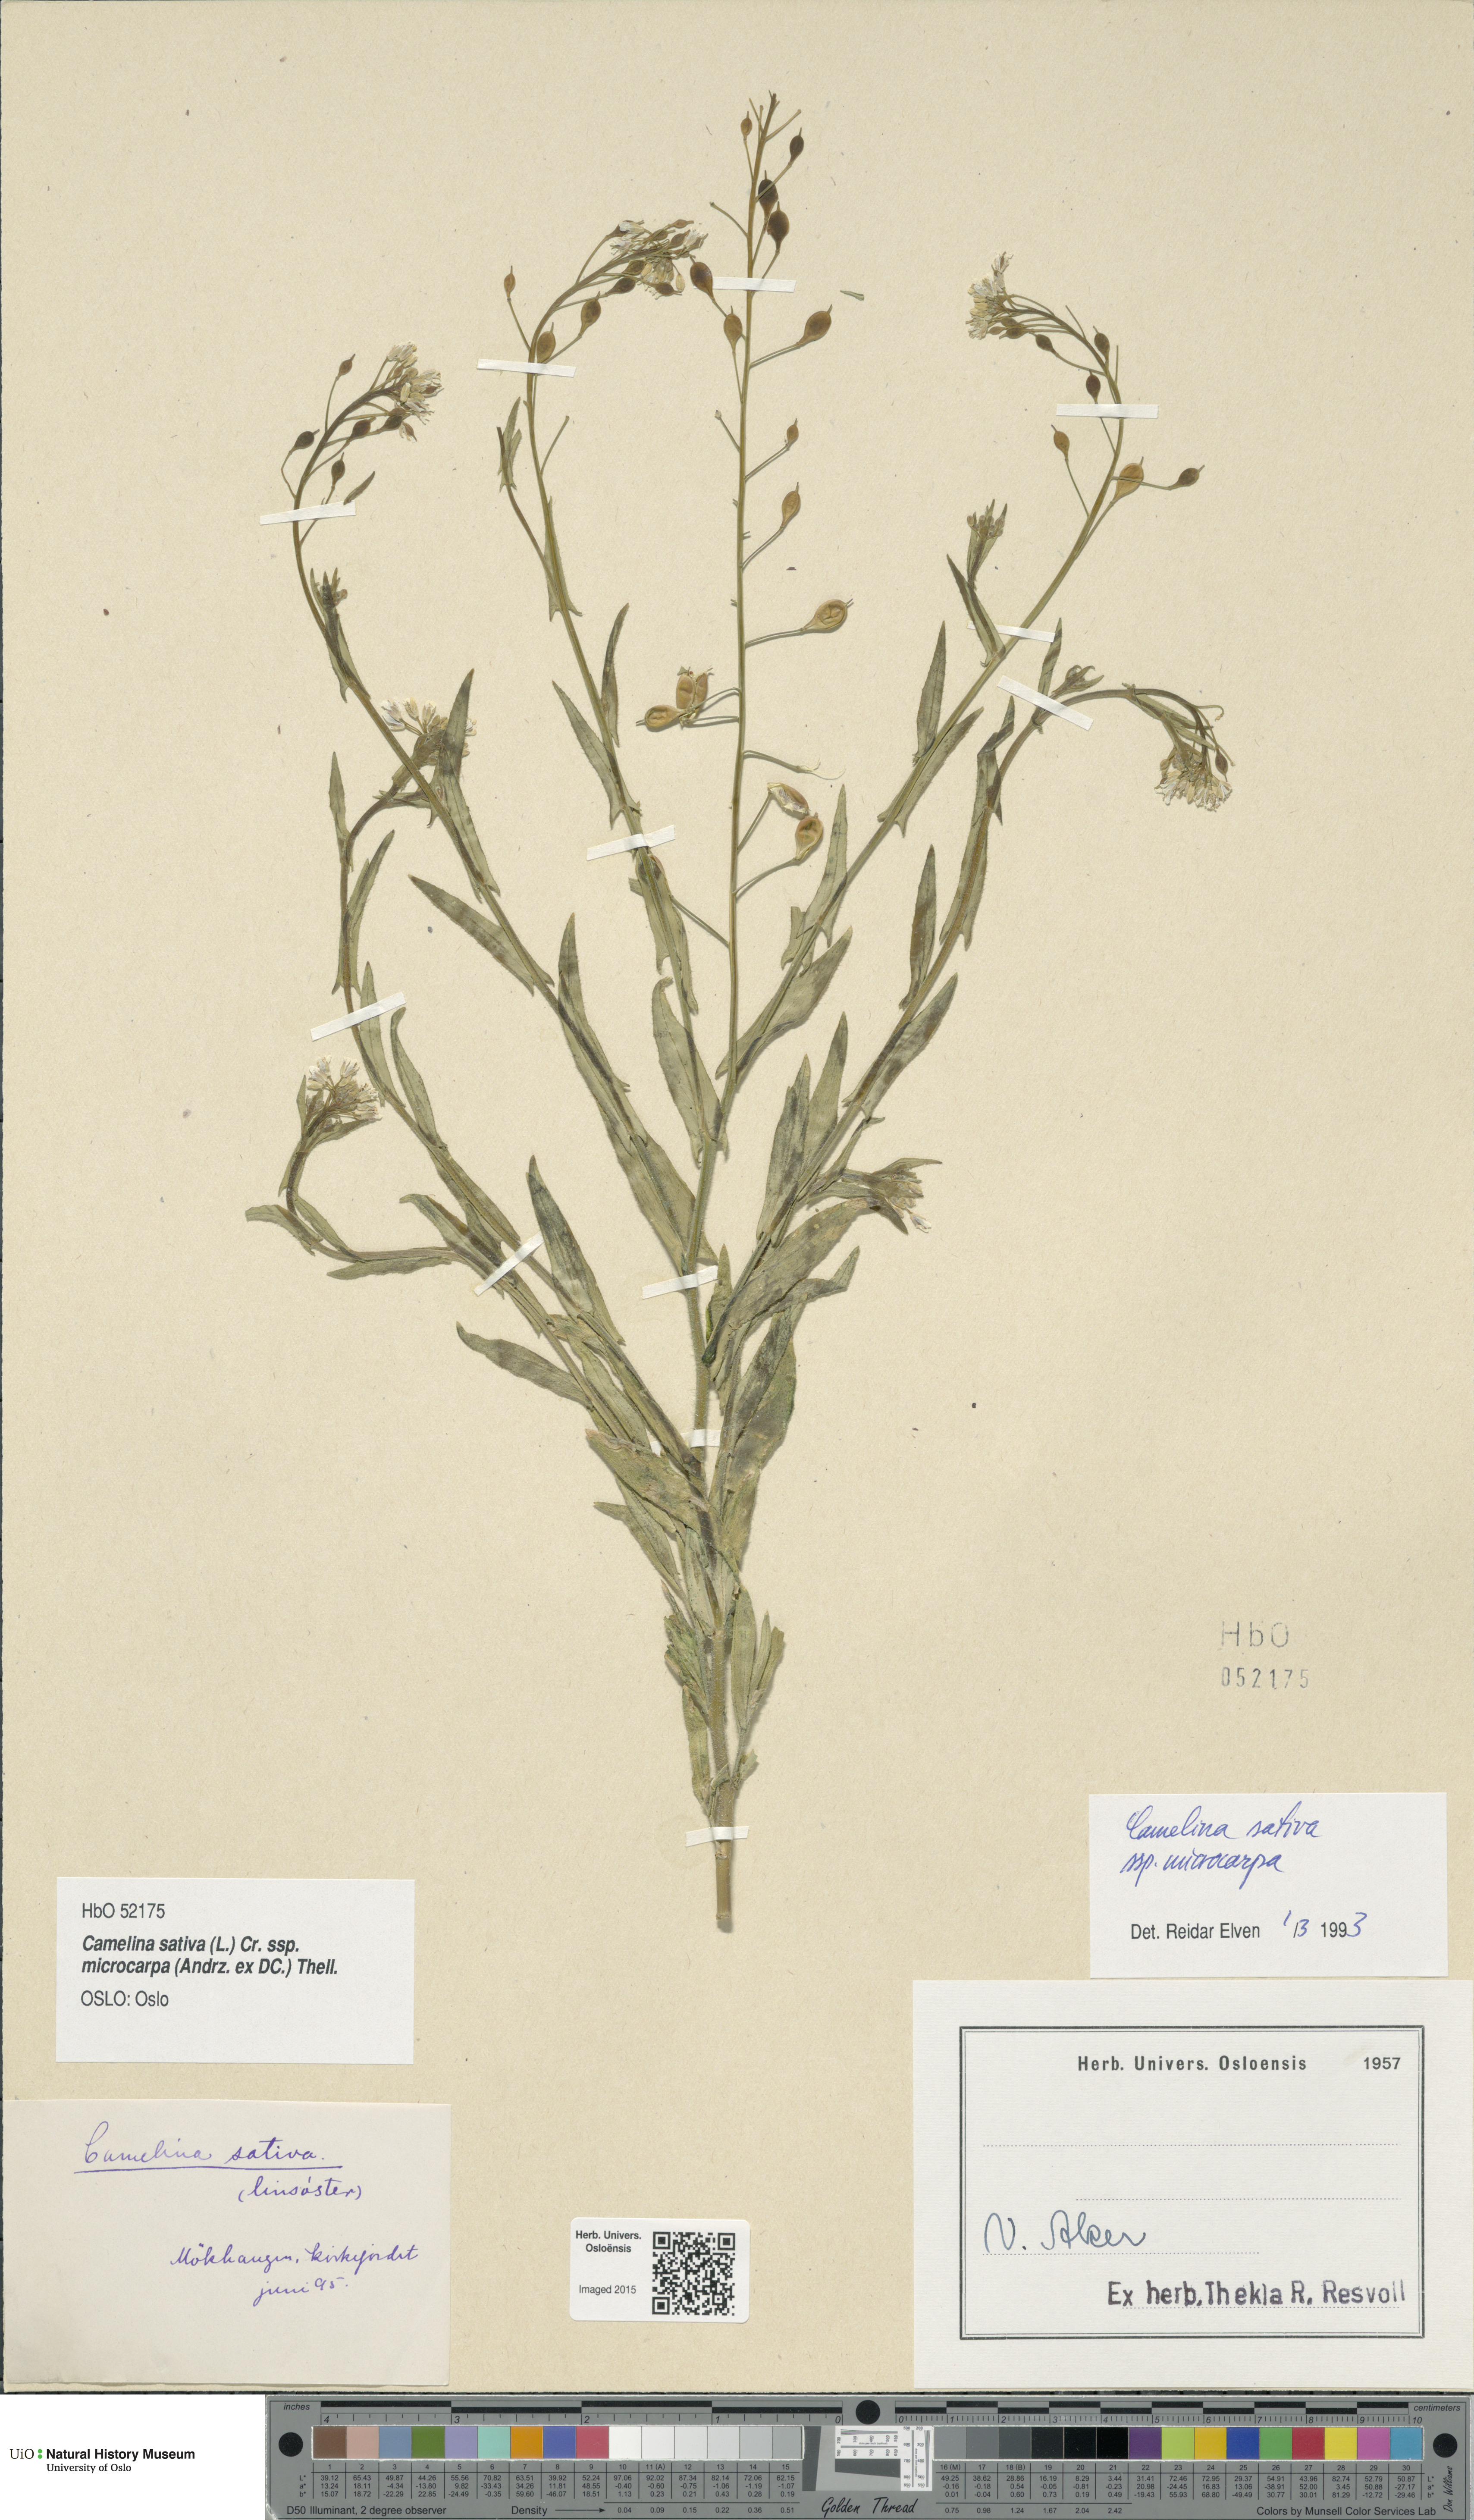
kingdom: Plantae
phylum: Tracheophyta
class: Magnoliopsida
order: Brassicales
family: Brassicaceae
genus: Camelina
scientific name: Camelina sativa
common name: Gold-of-pleasure
